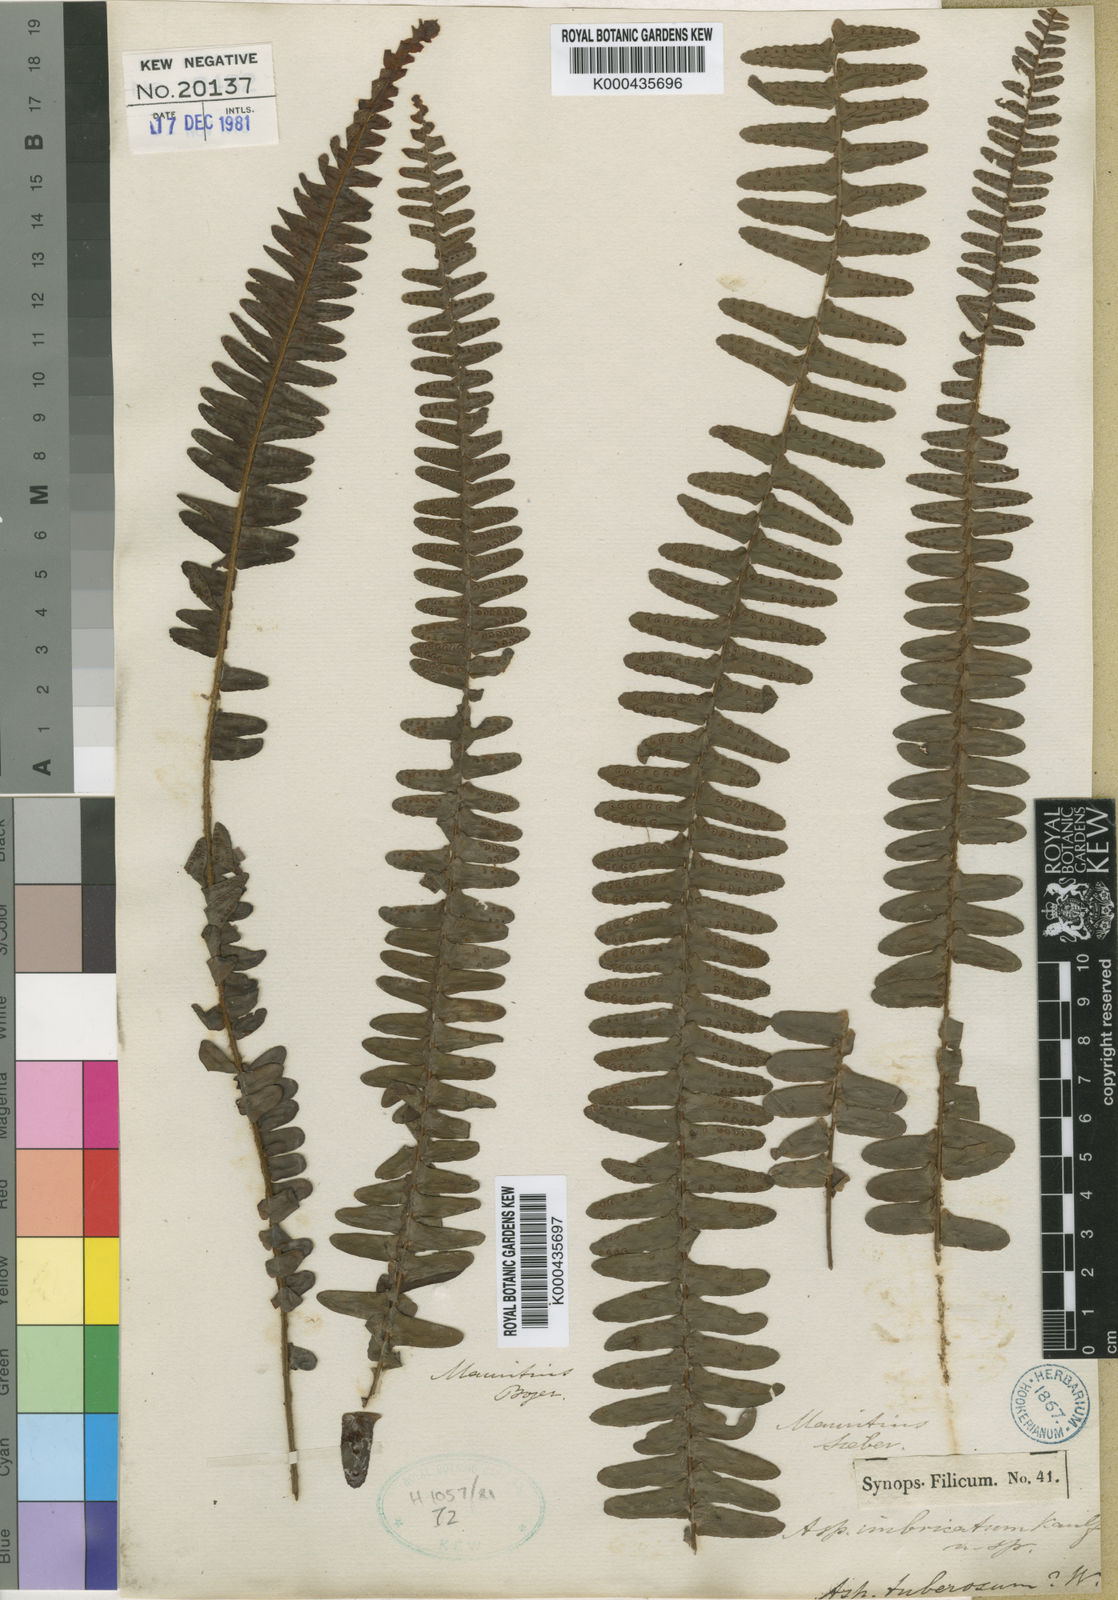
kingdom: Plantae
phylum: Tracheophyta
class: Polypodiopsida
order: Polypodiales
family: Nephrolepidaceae
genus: Nephrolepis
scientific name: Nephrolepis cordifolia
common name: Narrow swordfern
